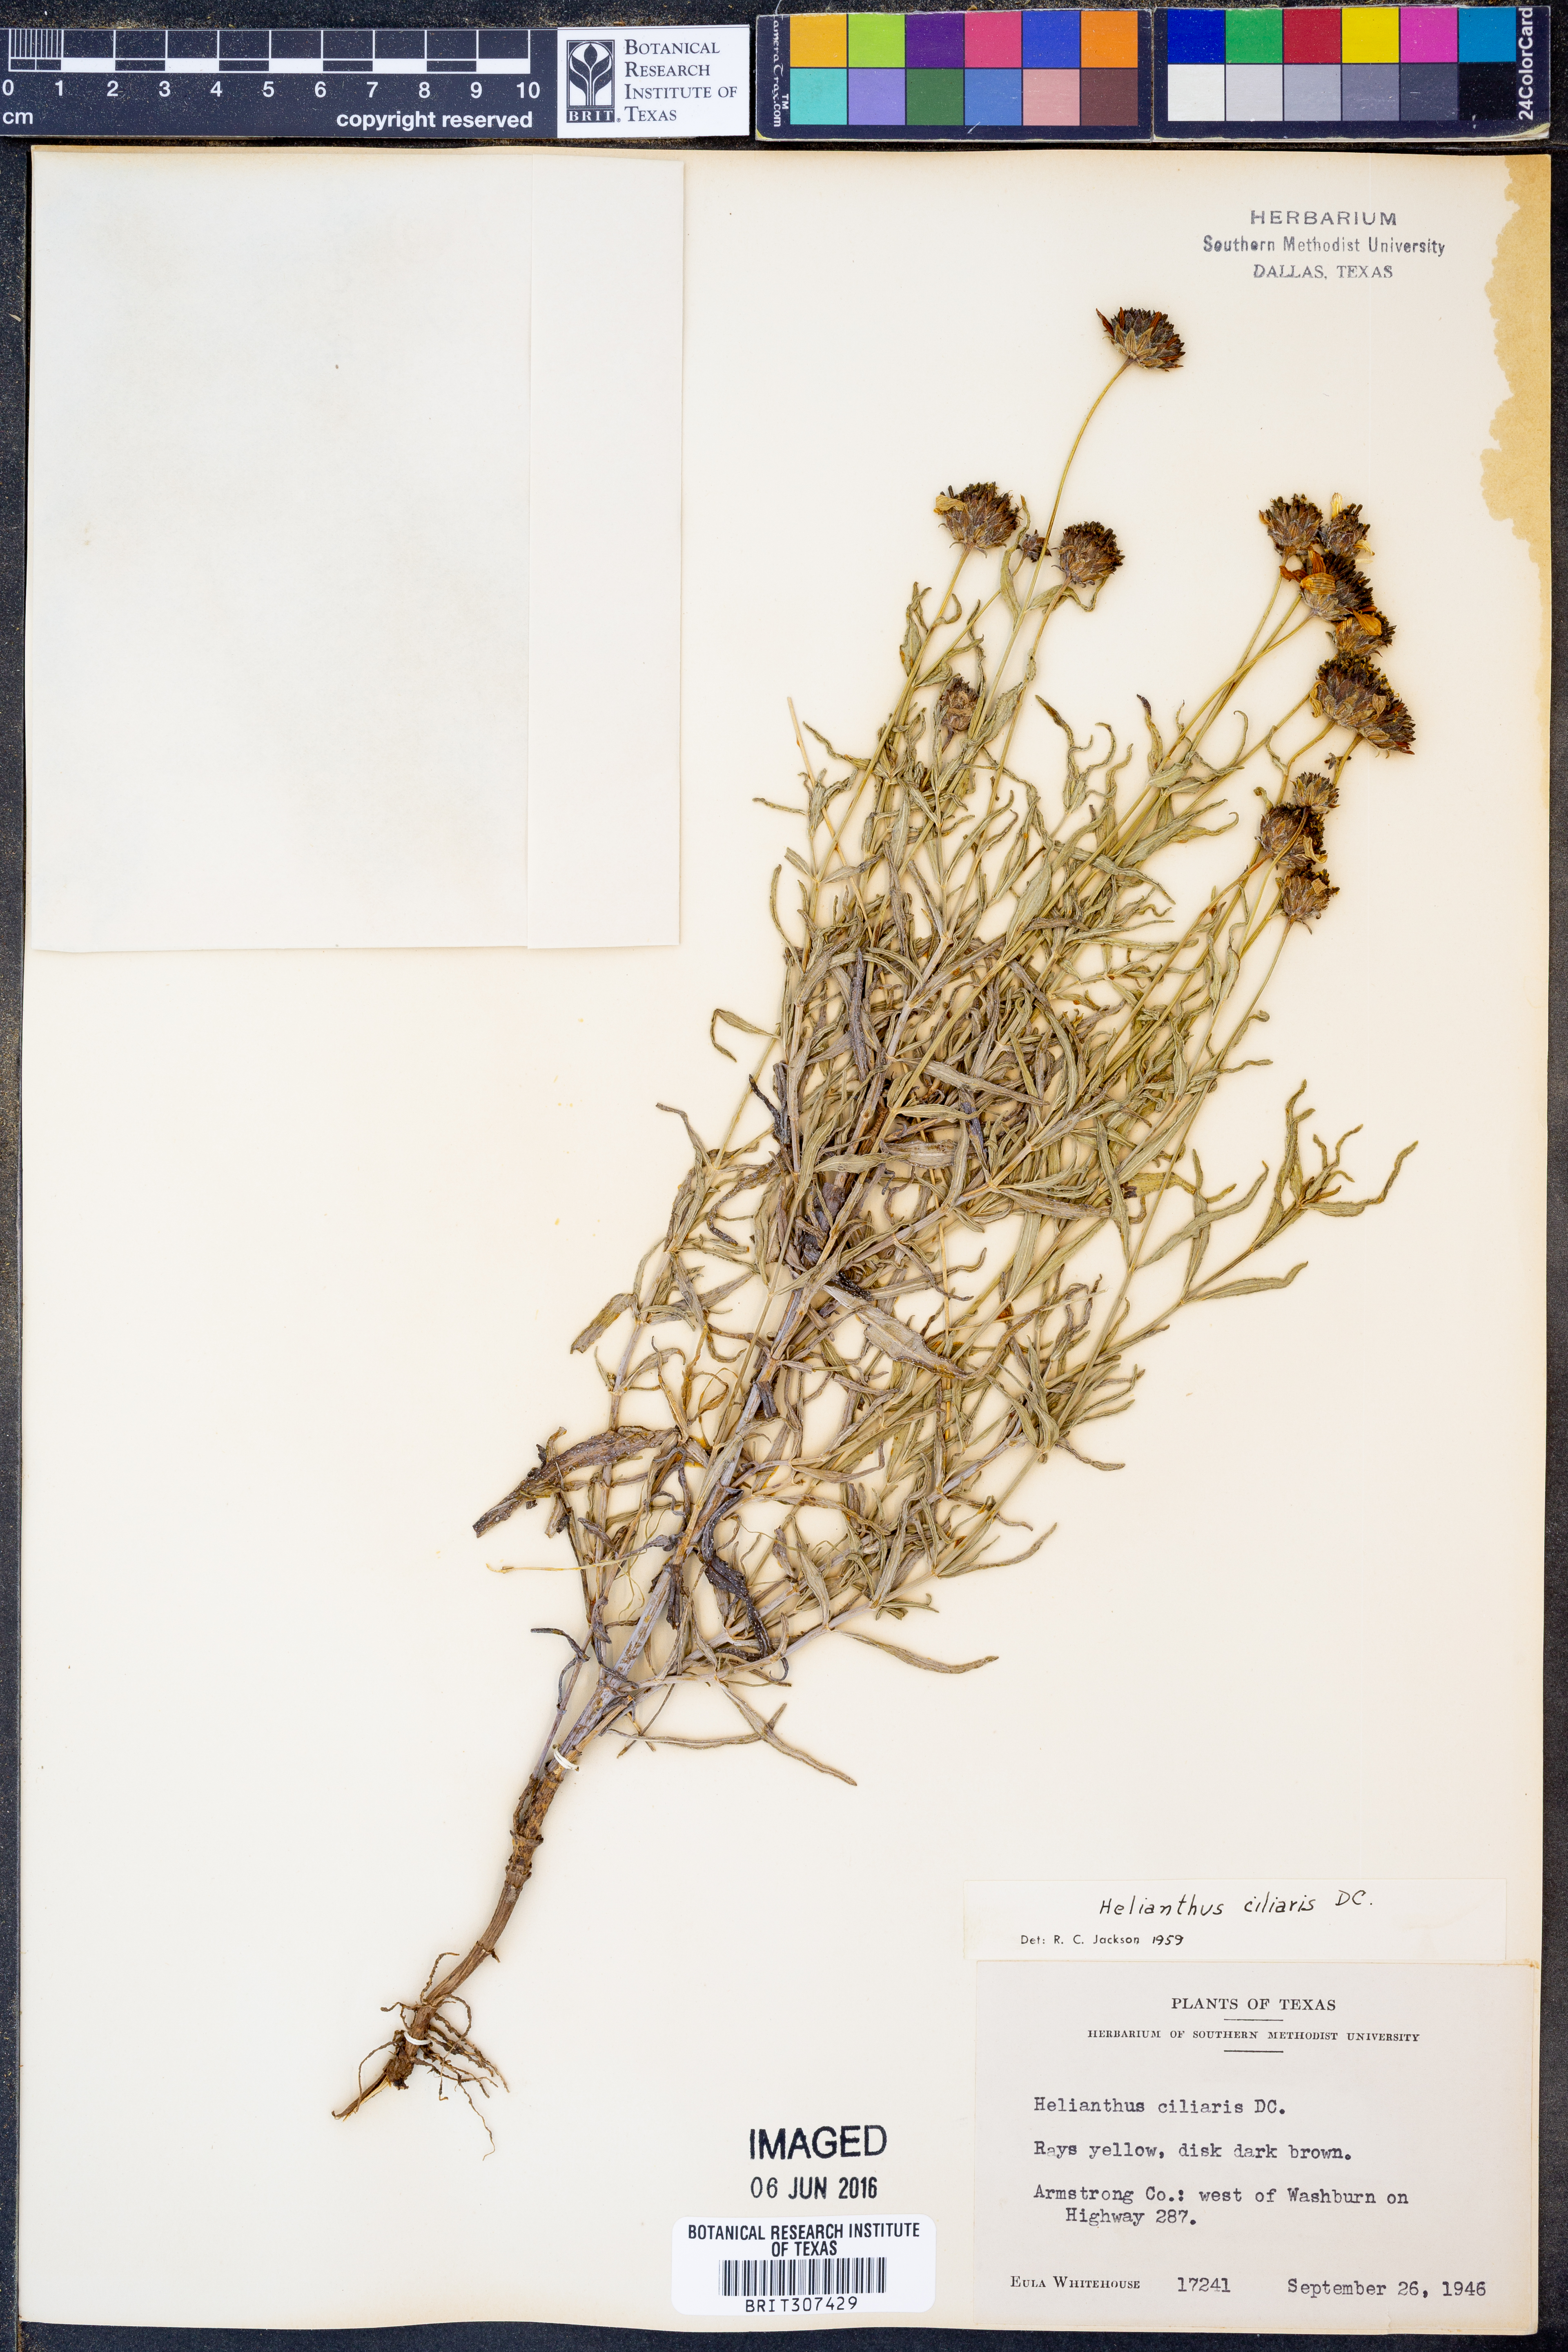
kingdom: Plantae
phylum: Tracheophyta
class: Magnoliopsida
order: Asterales
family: Asteraceae
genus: Helianthus
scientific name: Helianthus ciliaris
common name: Texas blueweed
